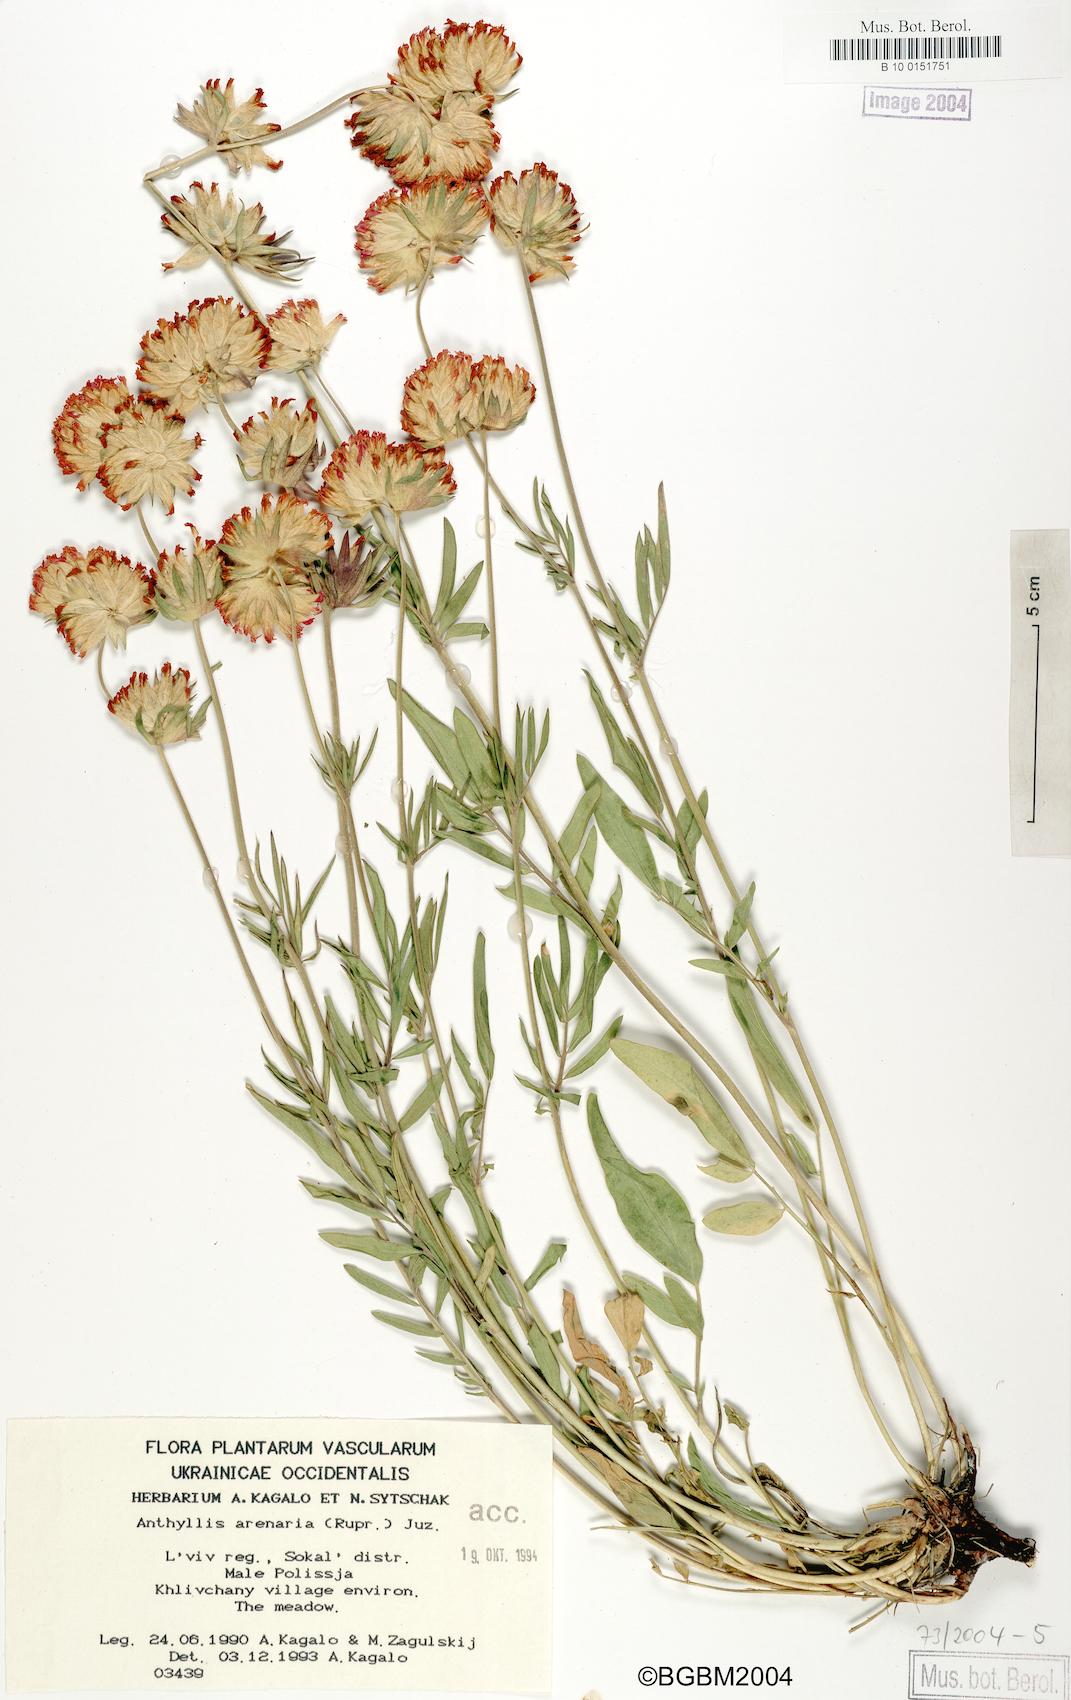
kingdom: Plantae
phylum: Tracheophyta
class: Magnoliopsida
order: Fabales
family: Fabaceae
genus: Anthyllis
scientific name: Anthyllis vulneraria
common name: Kidney vetch
